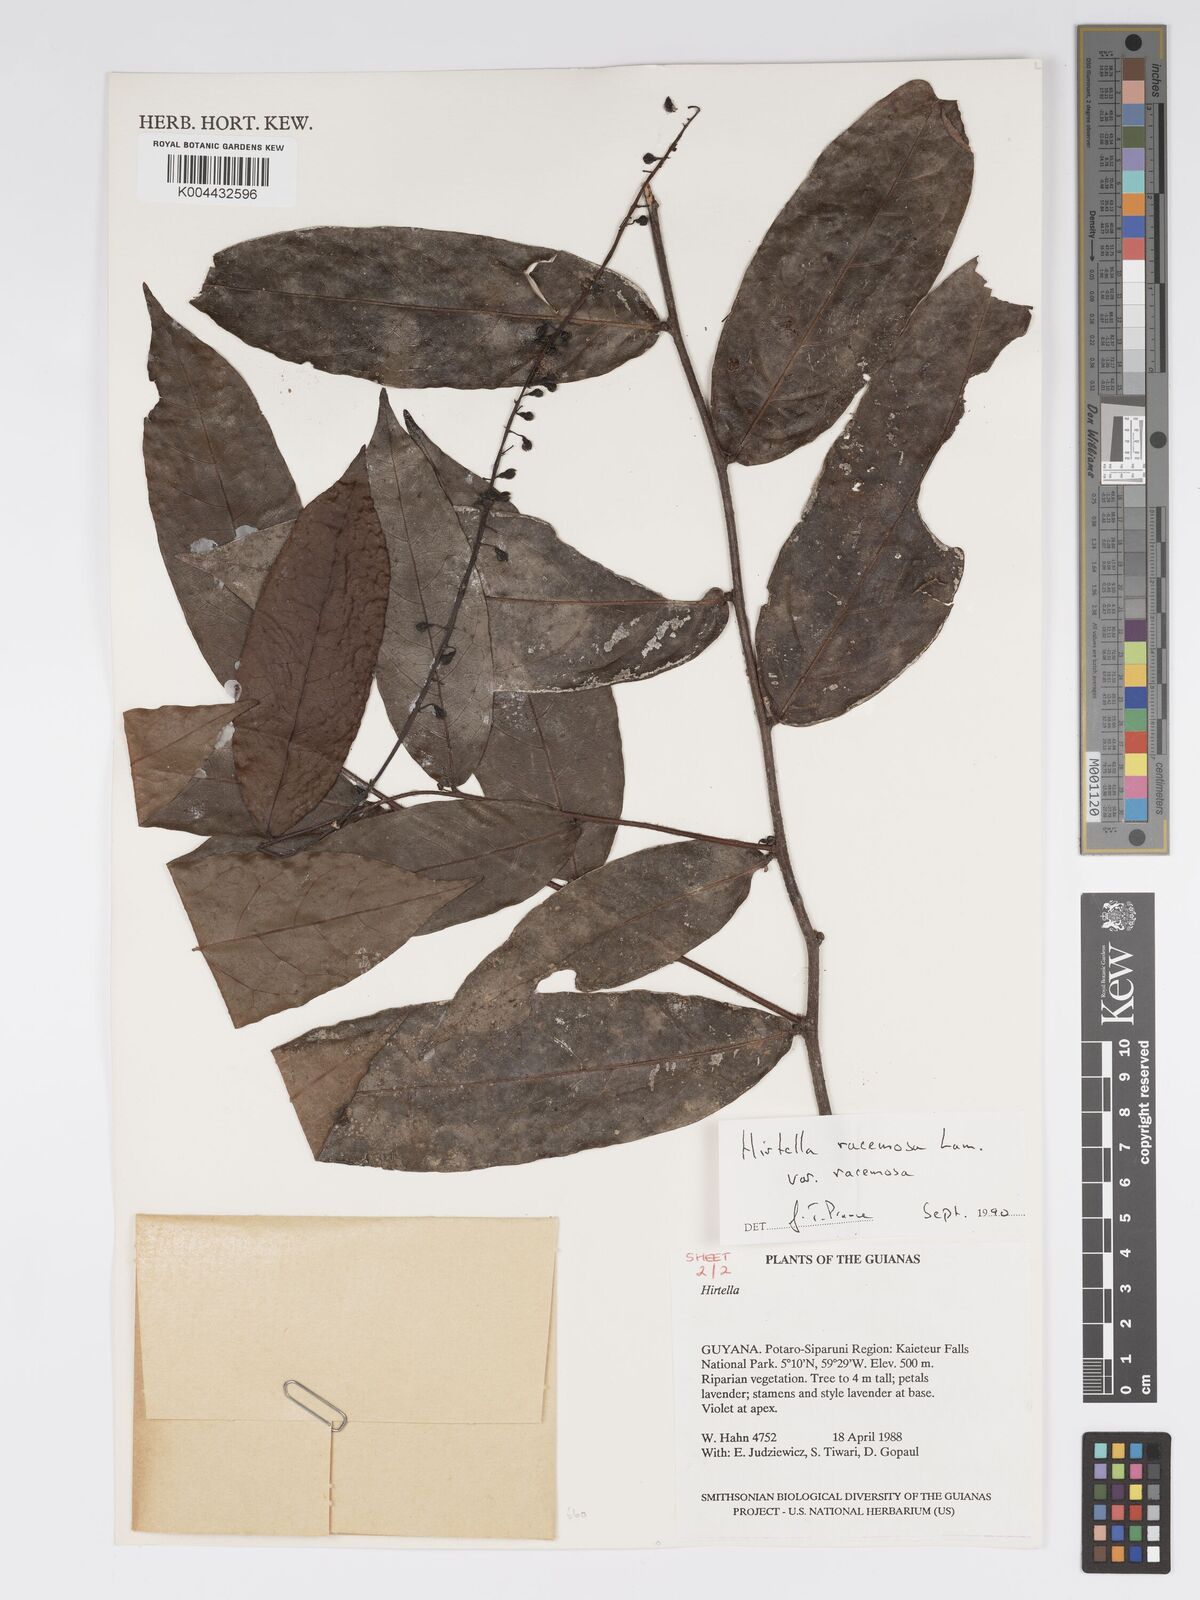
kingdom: Plantae
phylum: Tracheophyta
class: Magnoliopsida
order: Malpighiales
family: Chrysobalanaceae
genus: Hirtella
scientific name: Hirtella racemosa
